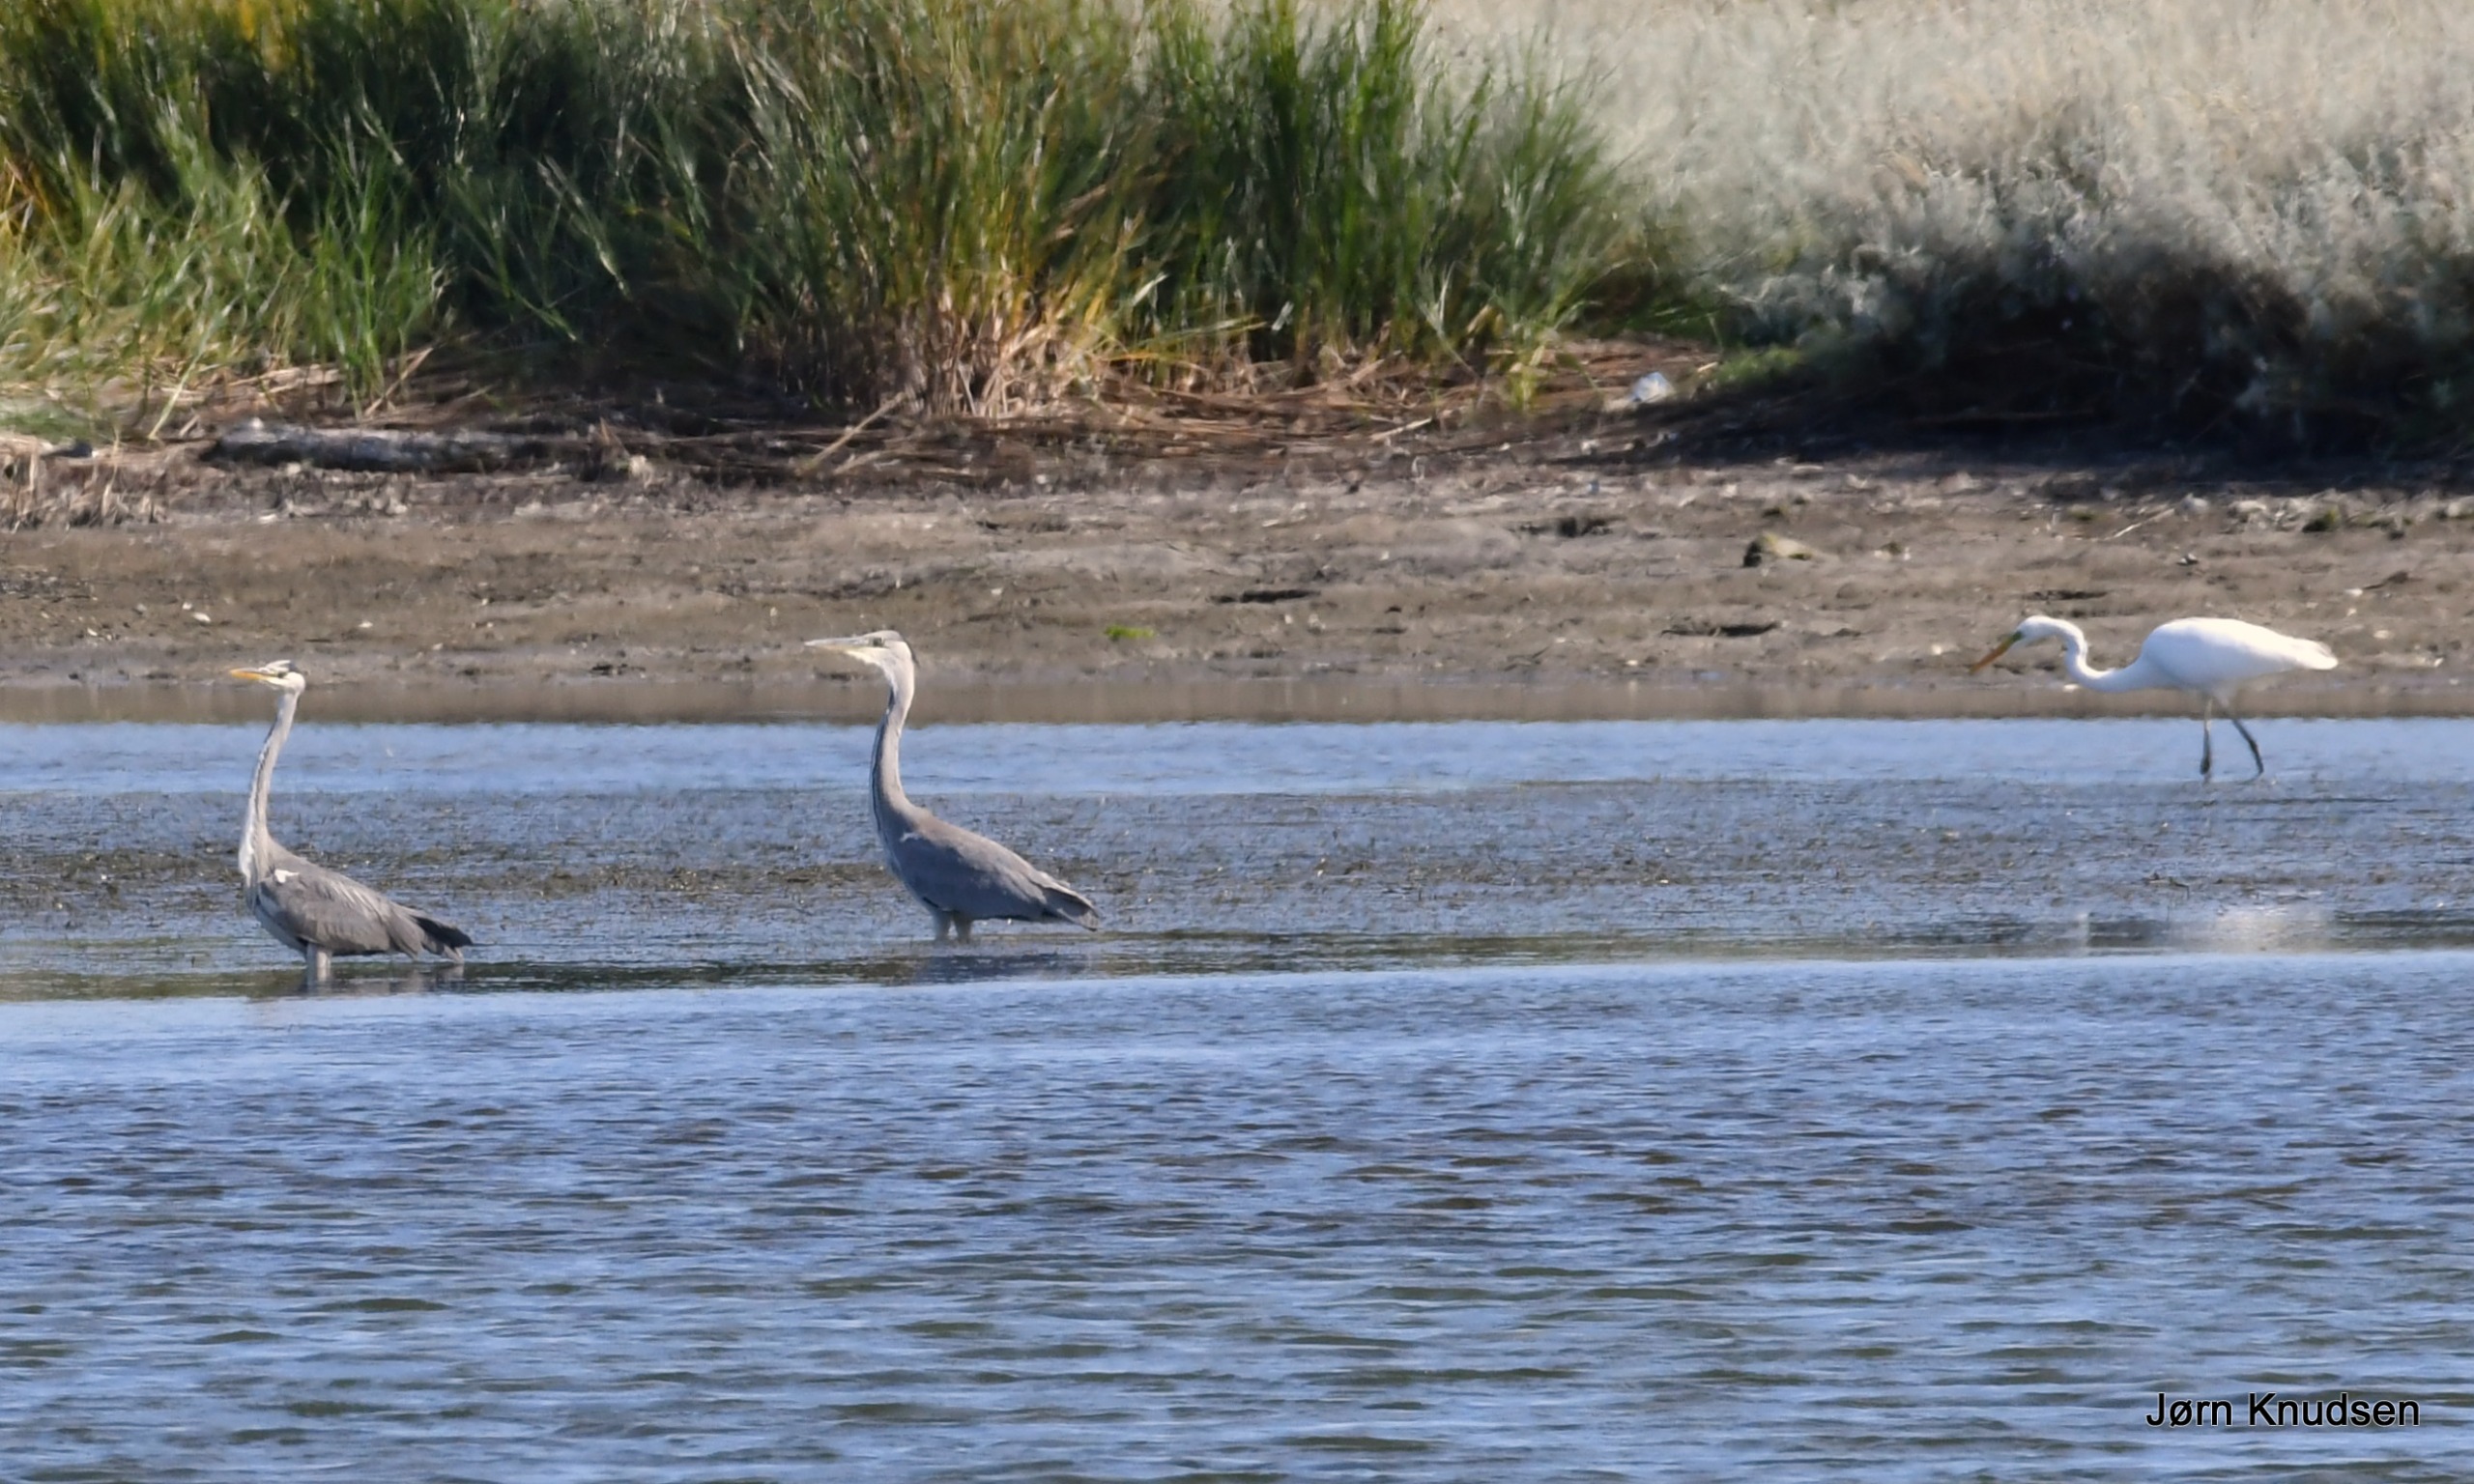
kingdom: Animalia
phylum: Chordata
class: Aves
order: Pelecaniformes
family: Ardeidae
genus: Ardea
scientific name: Ardea alba
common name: Sølvhejre
